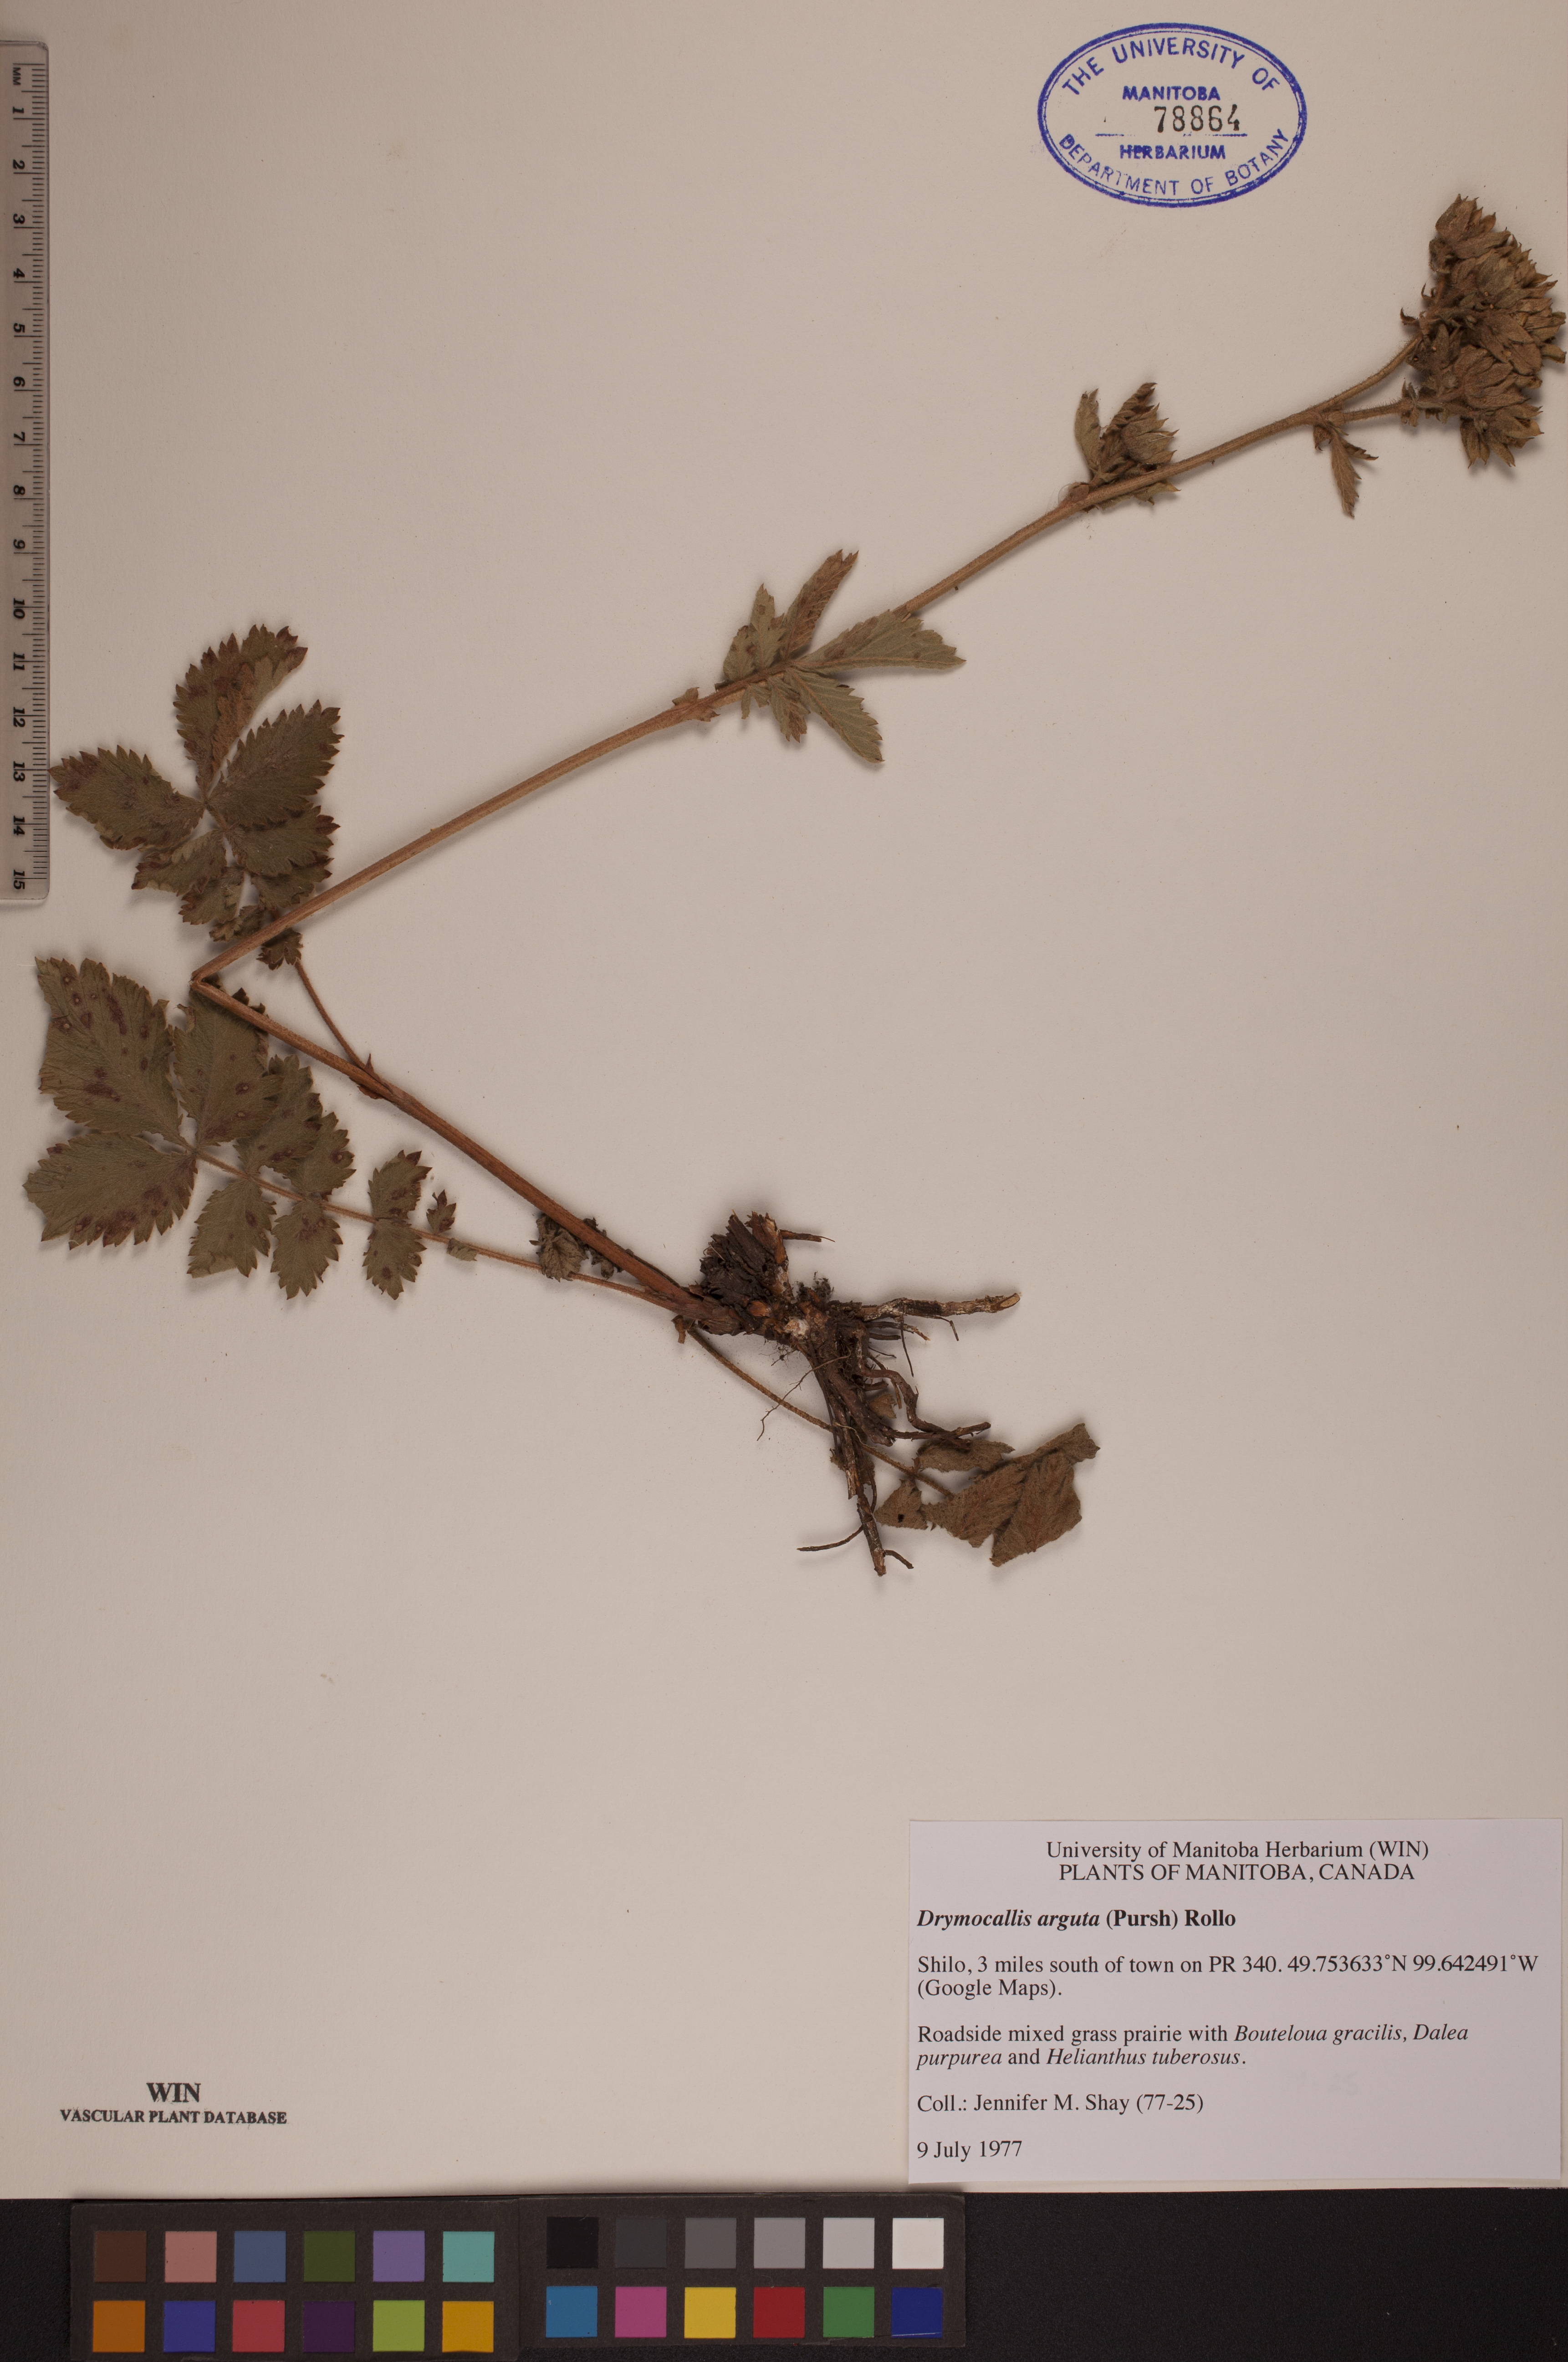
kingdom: Plantae
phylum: Tracheophyta
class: Magnoliopsida
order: Rosales
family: Rosaceae
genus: Drymocallis
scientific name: Drymocallis arguta
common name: Tall cinquefoil
